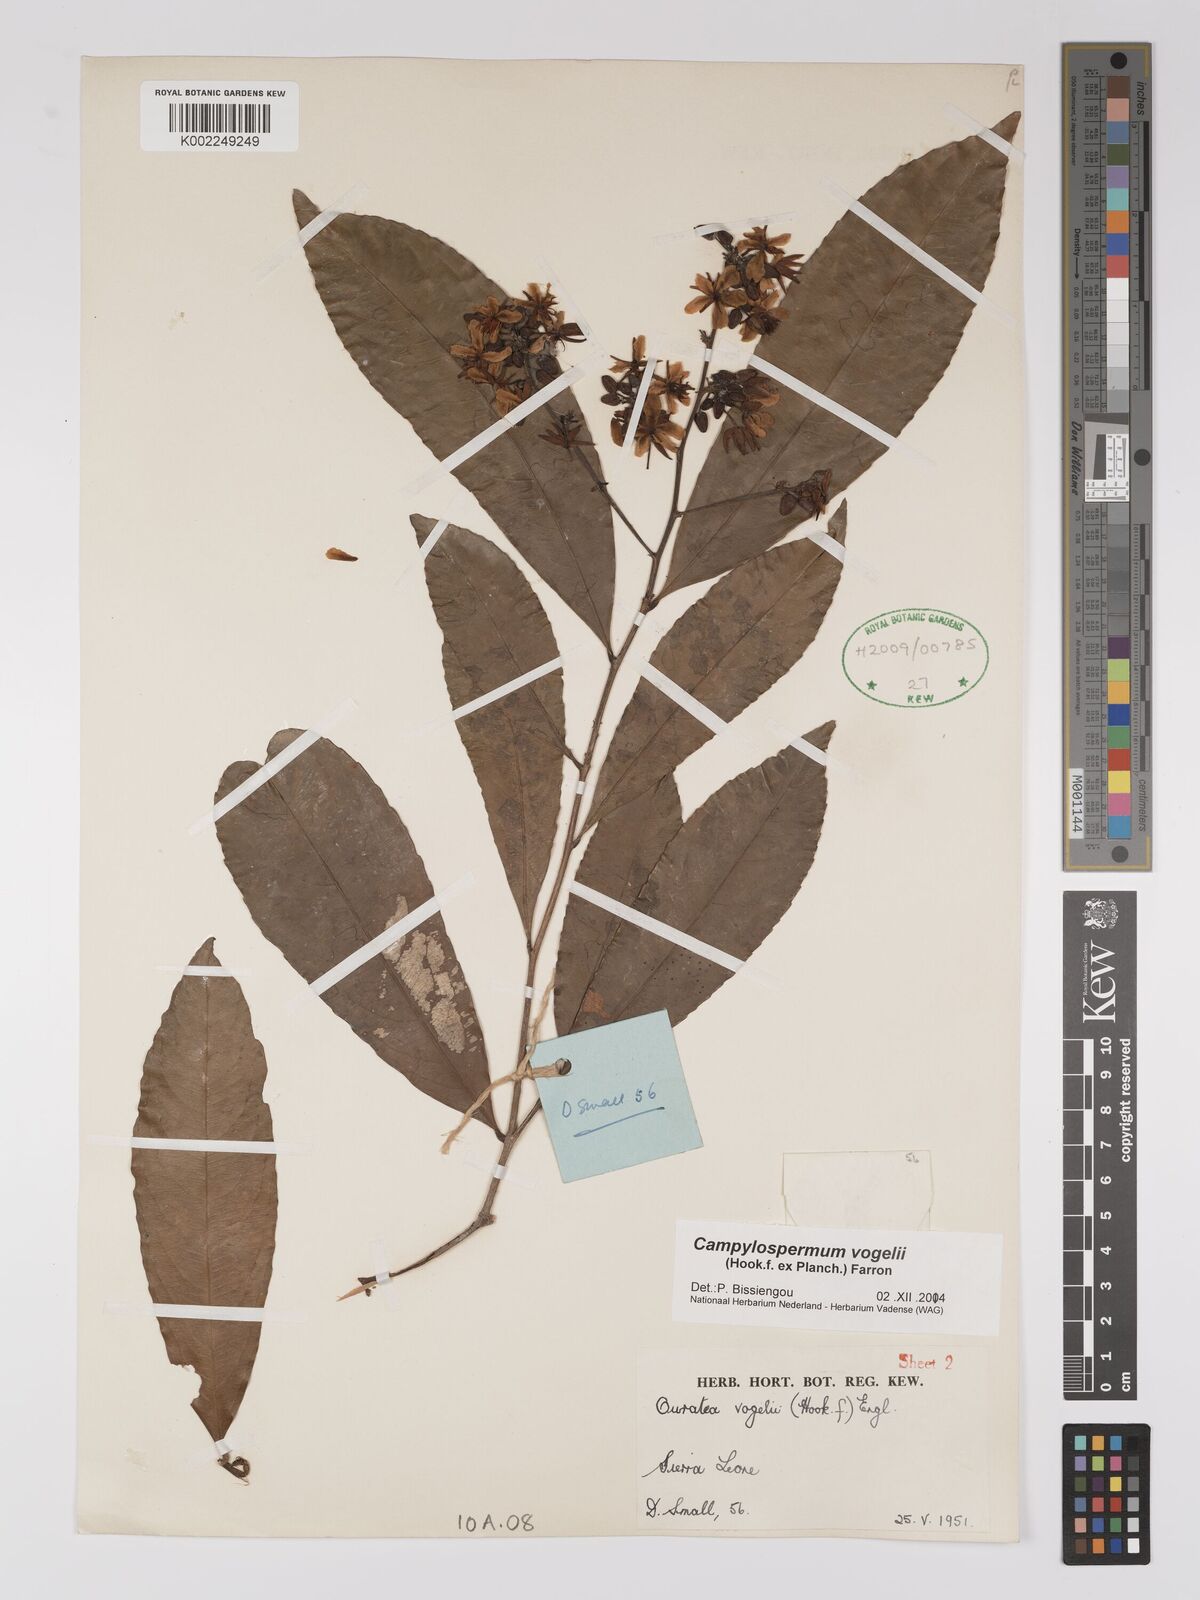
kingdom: Plantae
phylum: Tracheophyta
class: Magnoliopsida
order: Malpighiales
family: Ochnaceae
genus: Campylospermum
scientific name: Campylospermum vogelii
